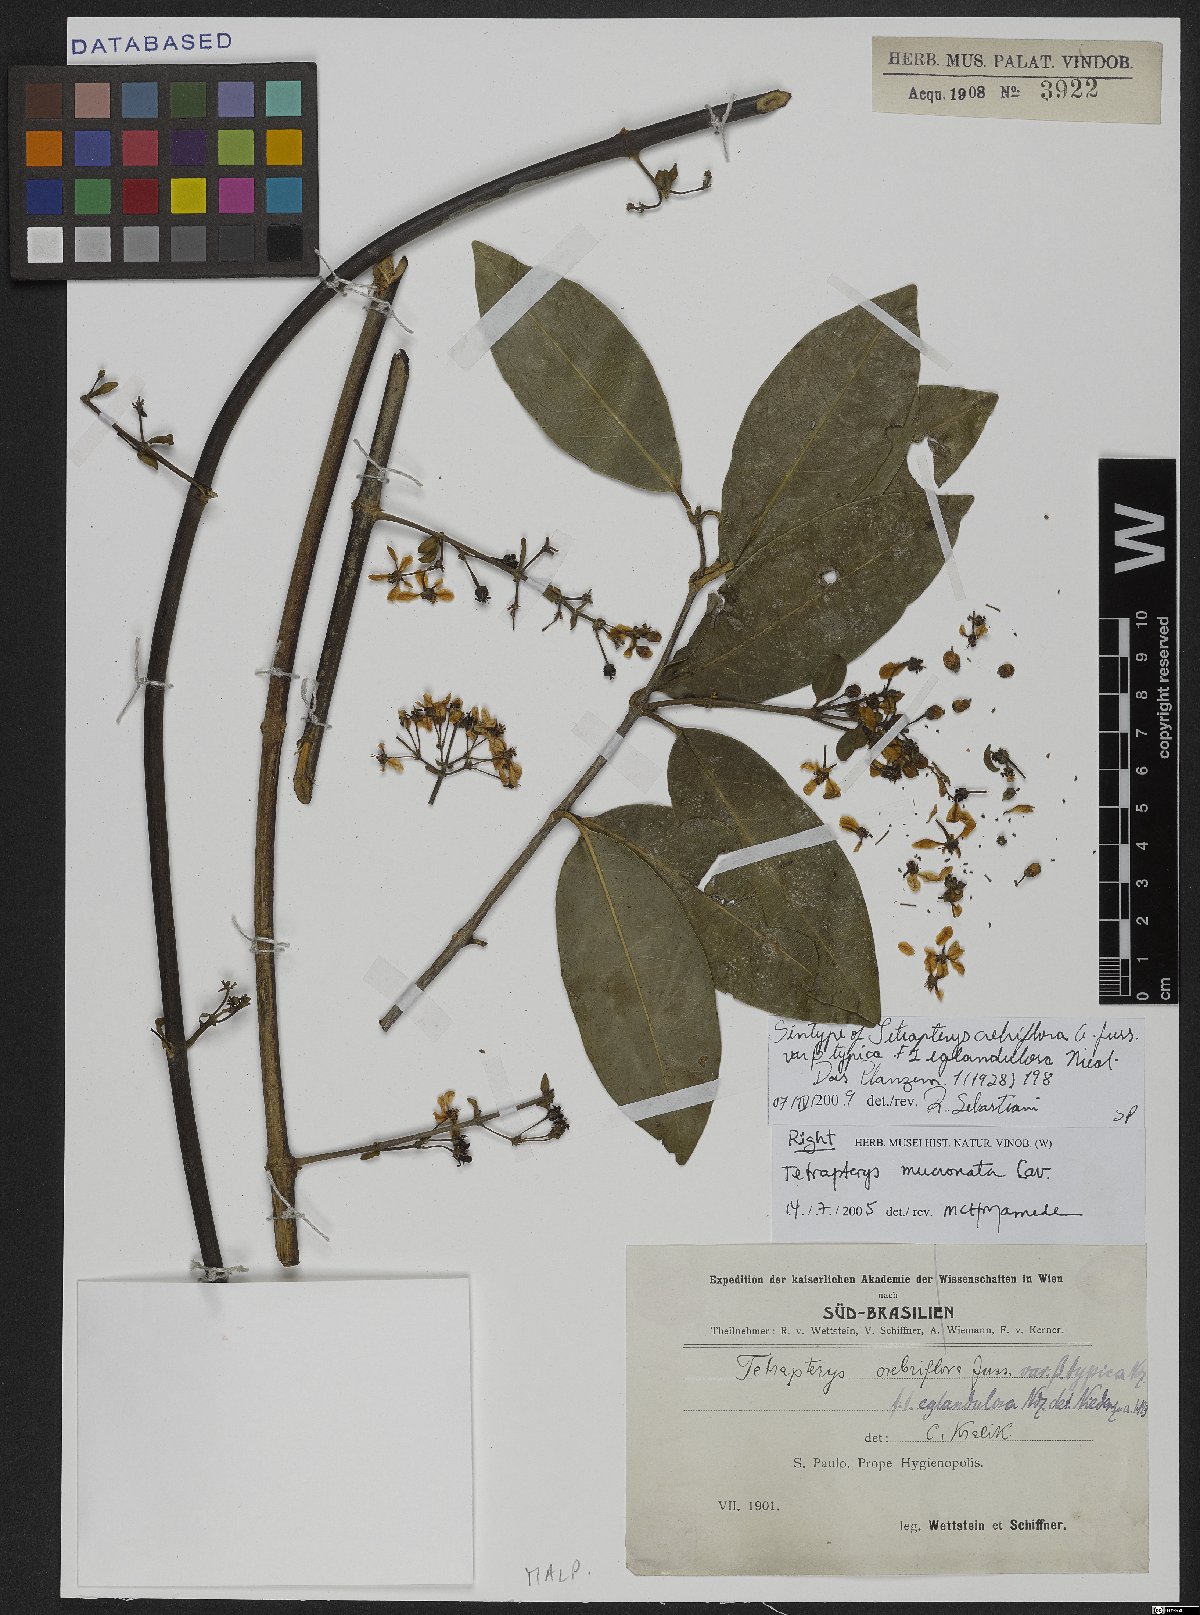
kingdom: Plantae
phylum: Tracheophyta
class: Magnoliopsida
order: Malpighiales
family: Malpighiaceae
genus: Tetrapterys
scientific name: Tetrapterys mucronata
